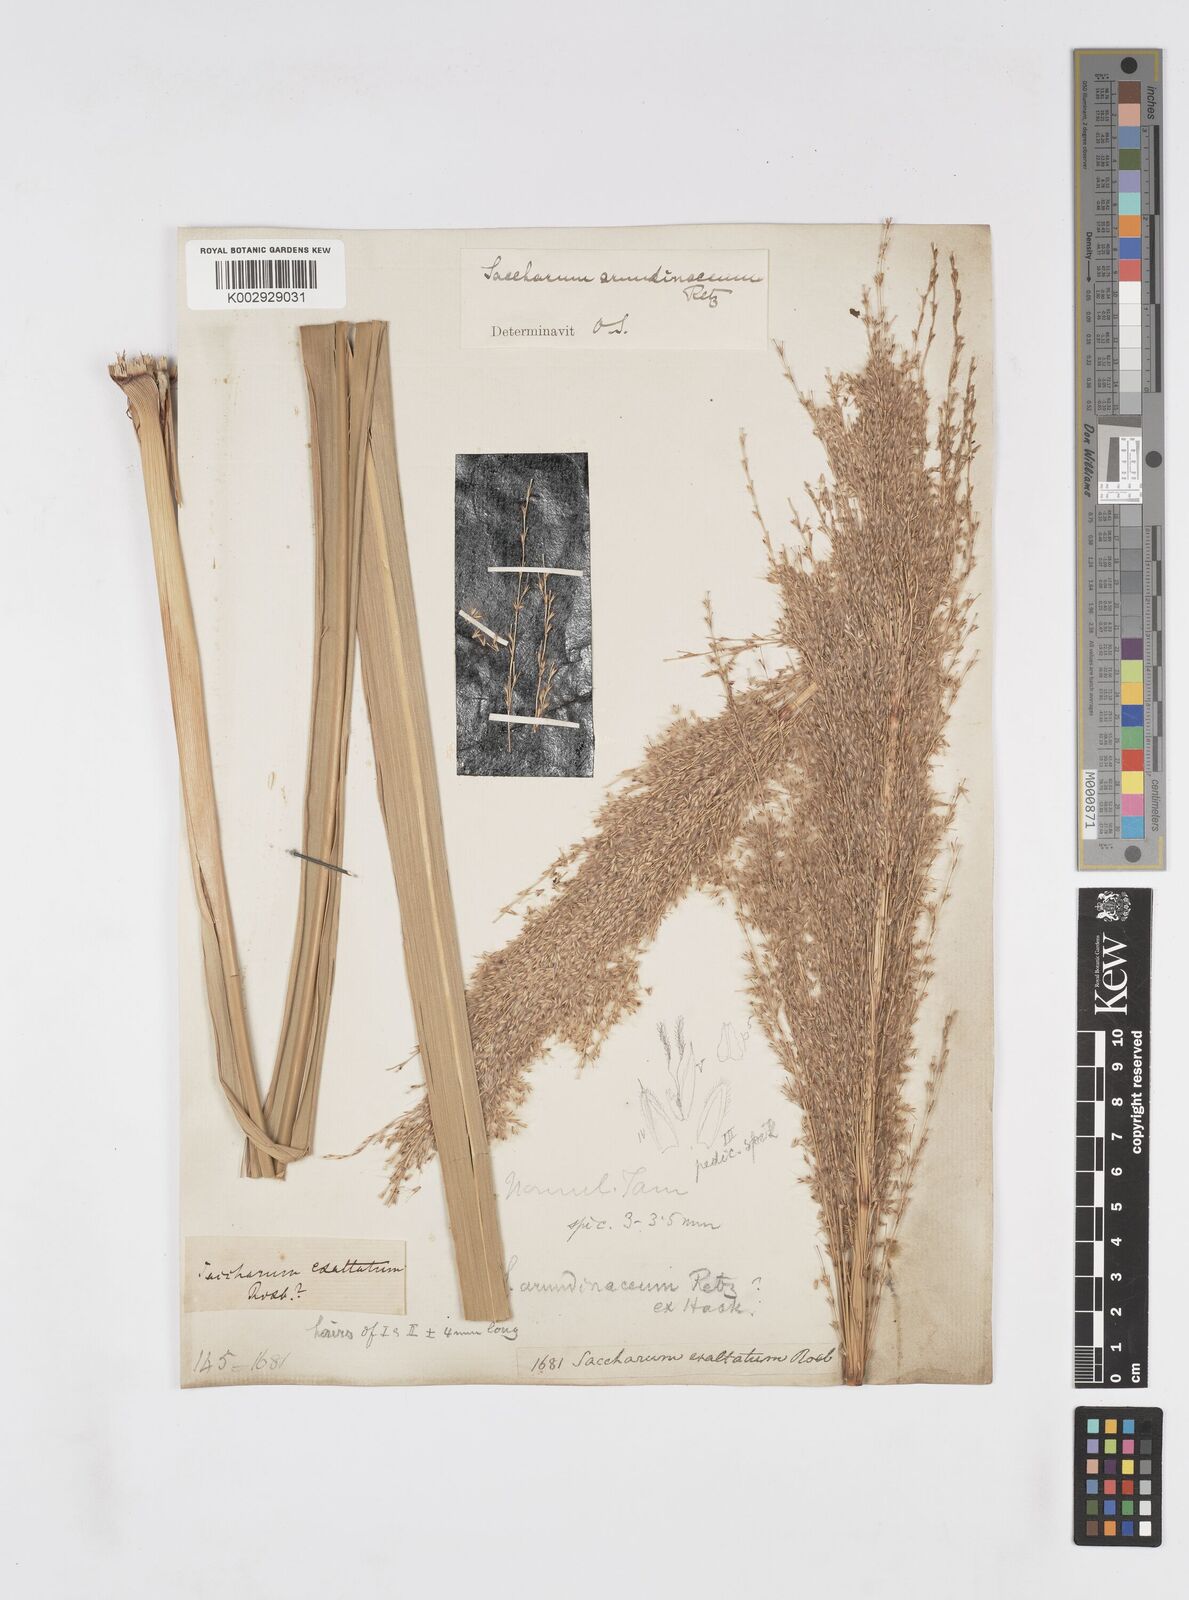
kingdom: Plantae
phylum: Tracheophyta
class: Liliopsida
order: Poales
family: Poaceae
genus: Tripidium
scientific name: Tripidium arundinaceum
